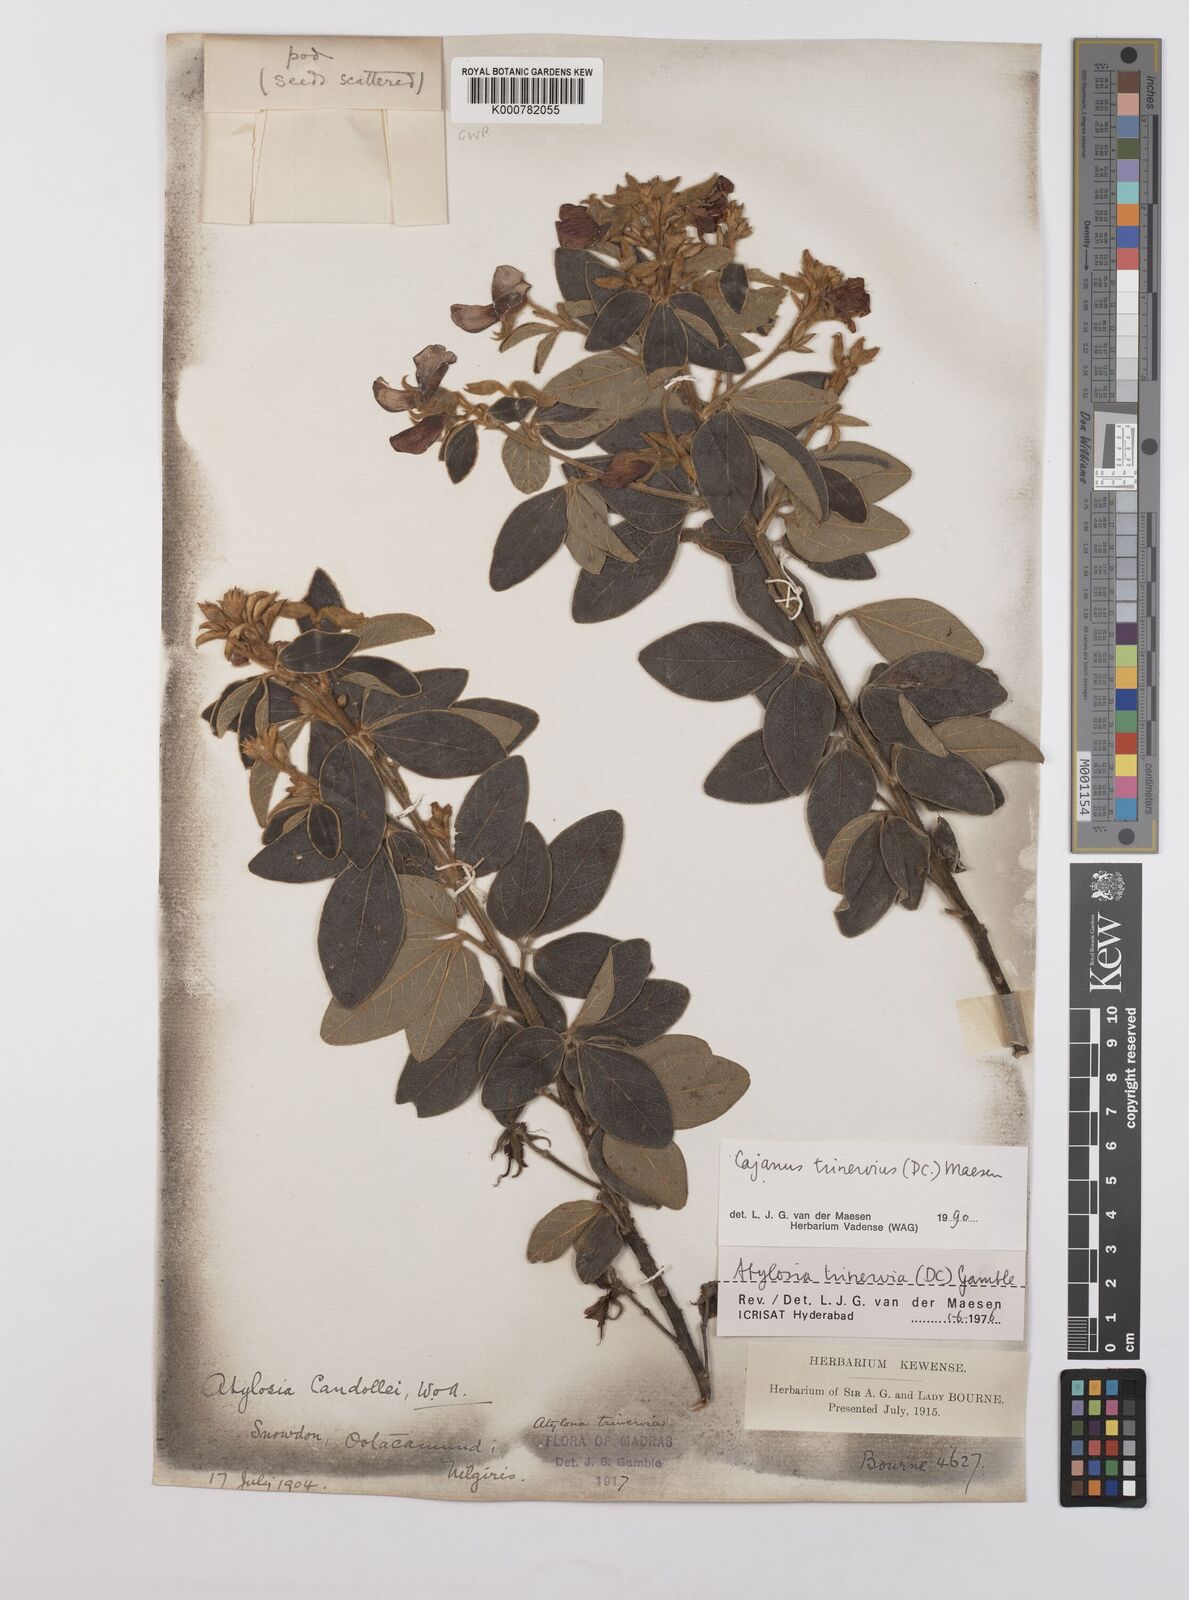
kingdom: Plantae
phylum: Tracheophyta
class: Magnoliopsida
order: Fabales
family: Fabaceae
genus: Cajanus
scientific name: Cajanus trinervius
